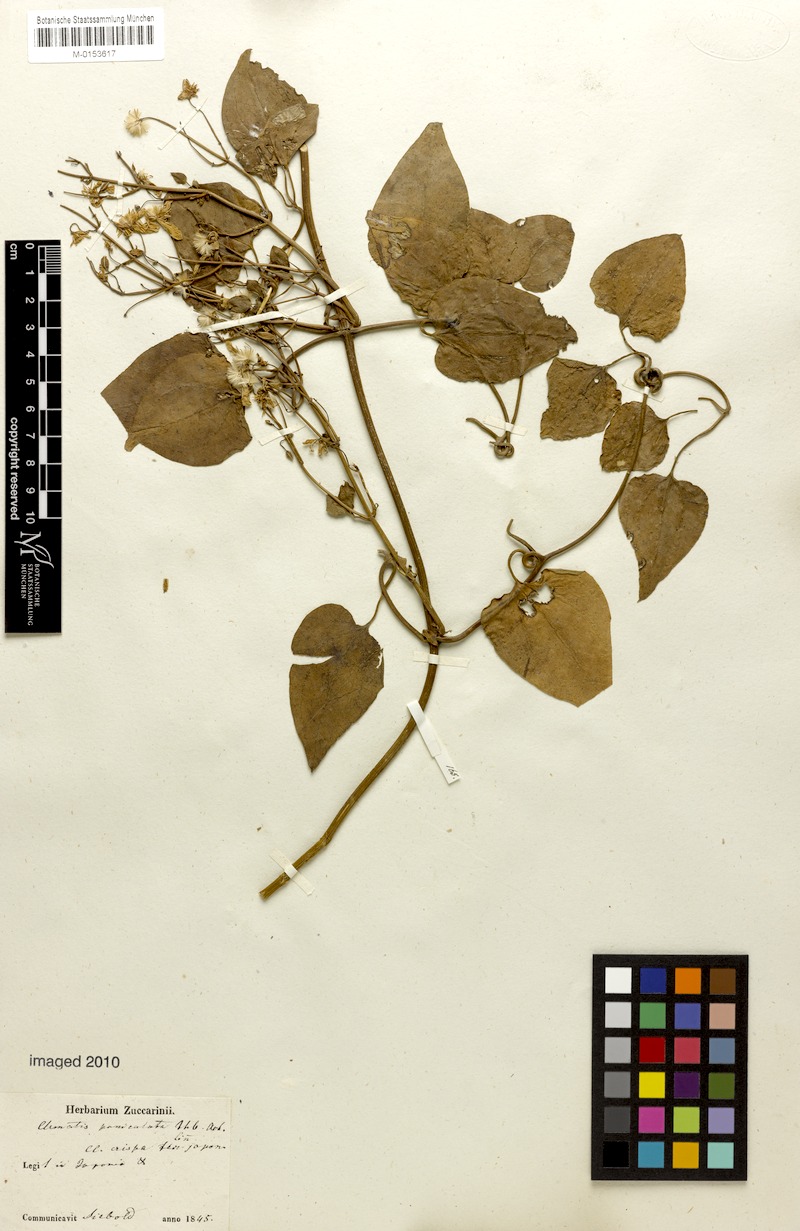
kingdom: Plantae
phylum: Tracheophyta
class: Magnoliopsida
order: Ranunculales
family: Ranunculaceae
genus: Clematis
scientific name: Clematis terniflora
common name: Sweet autumn clematis
